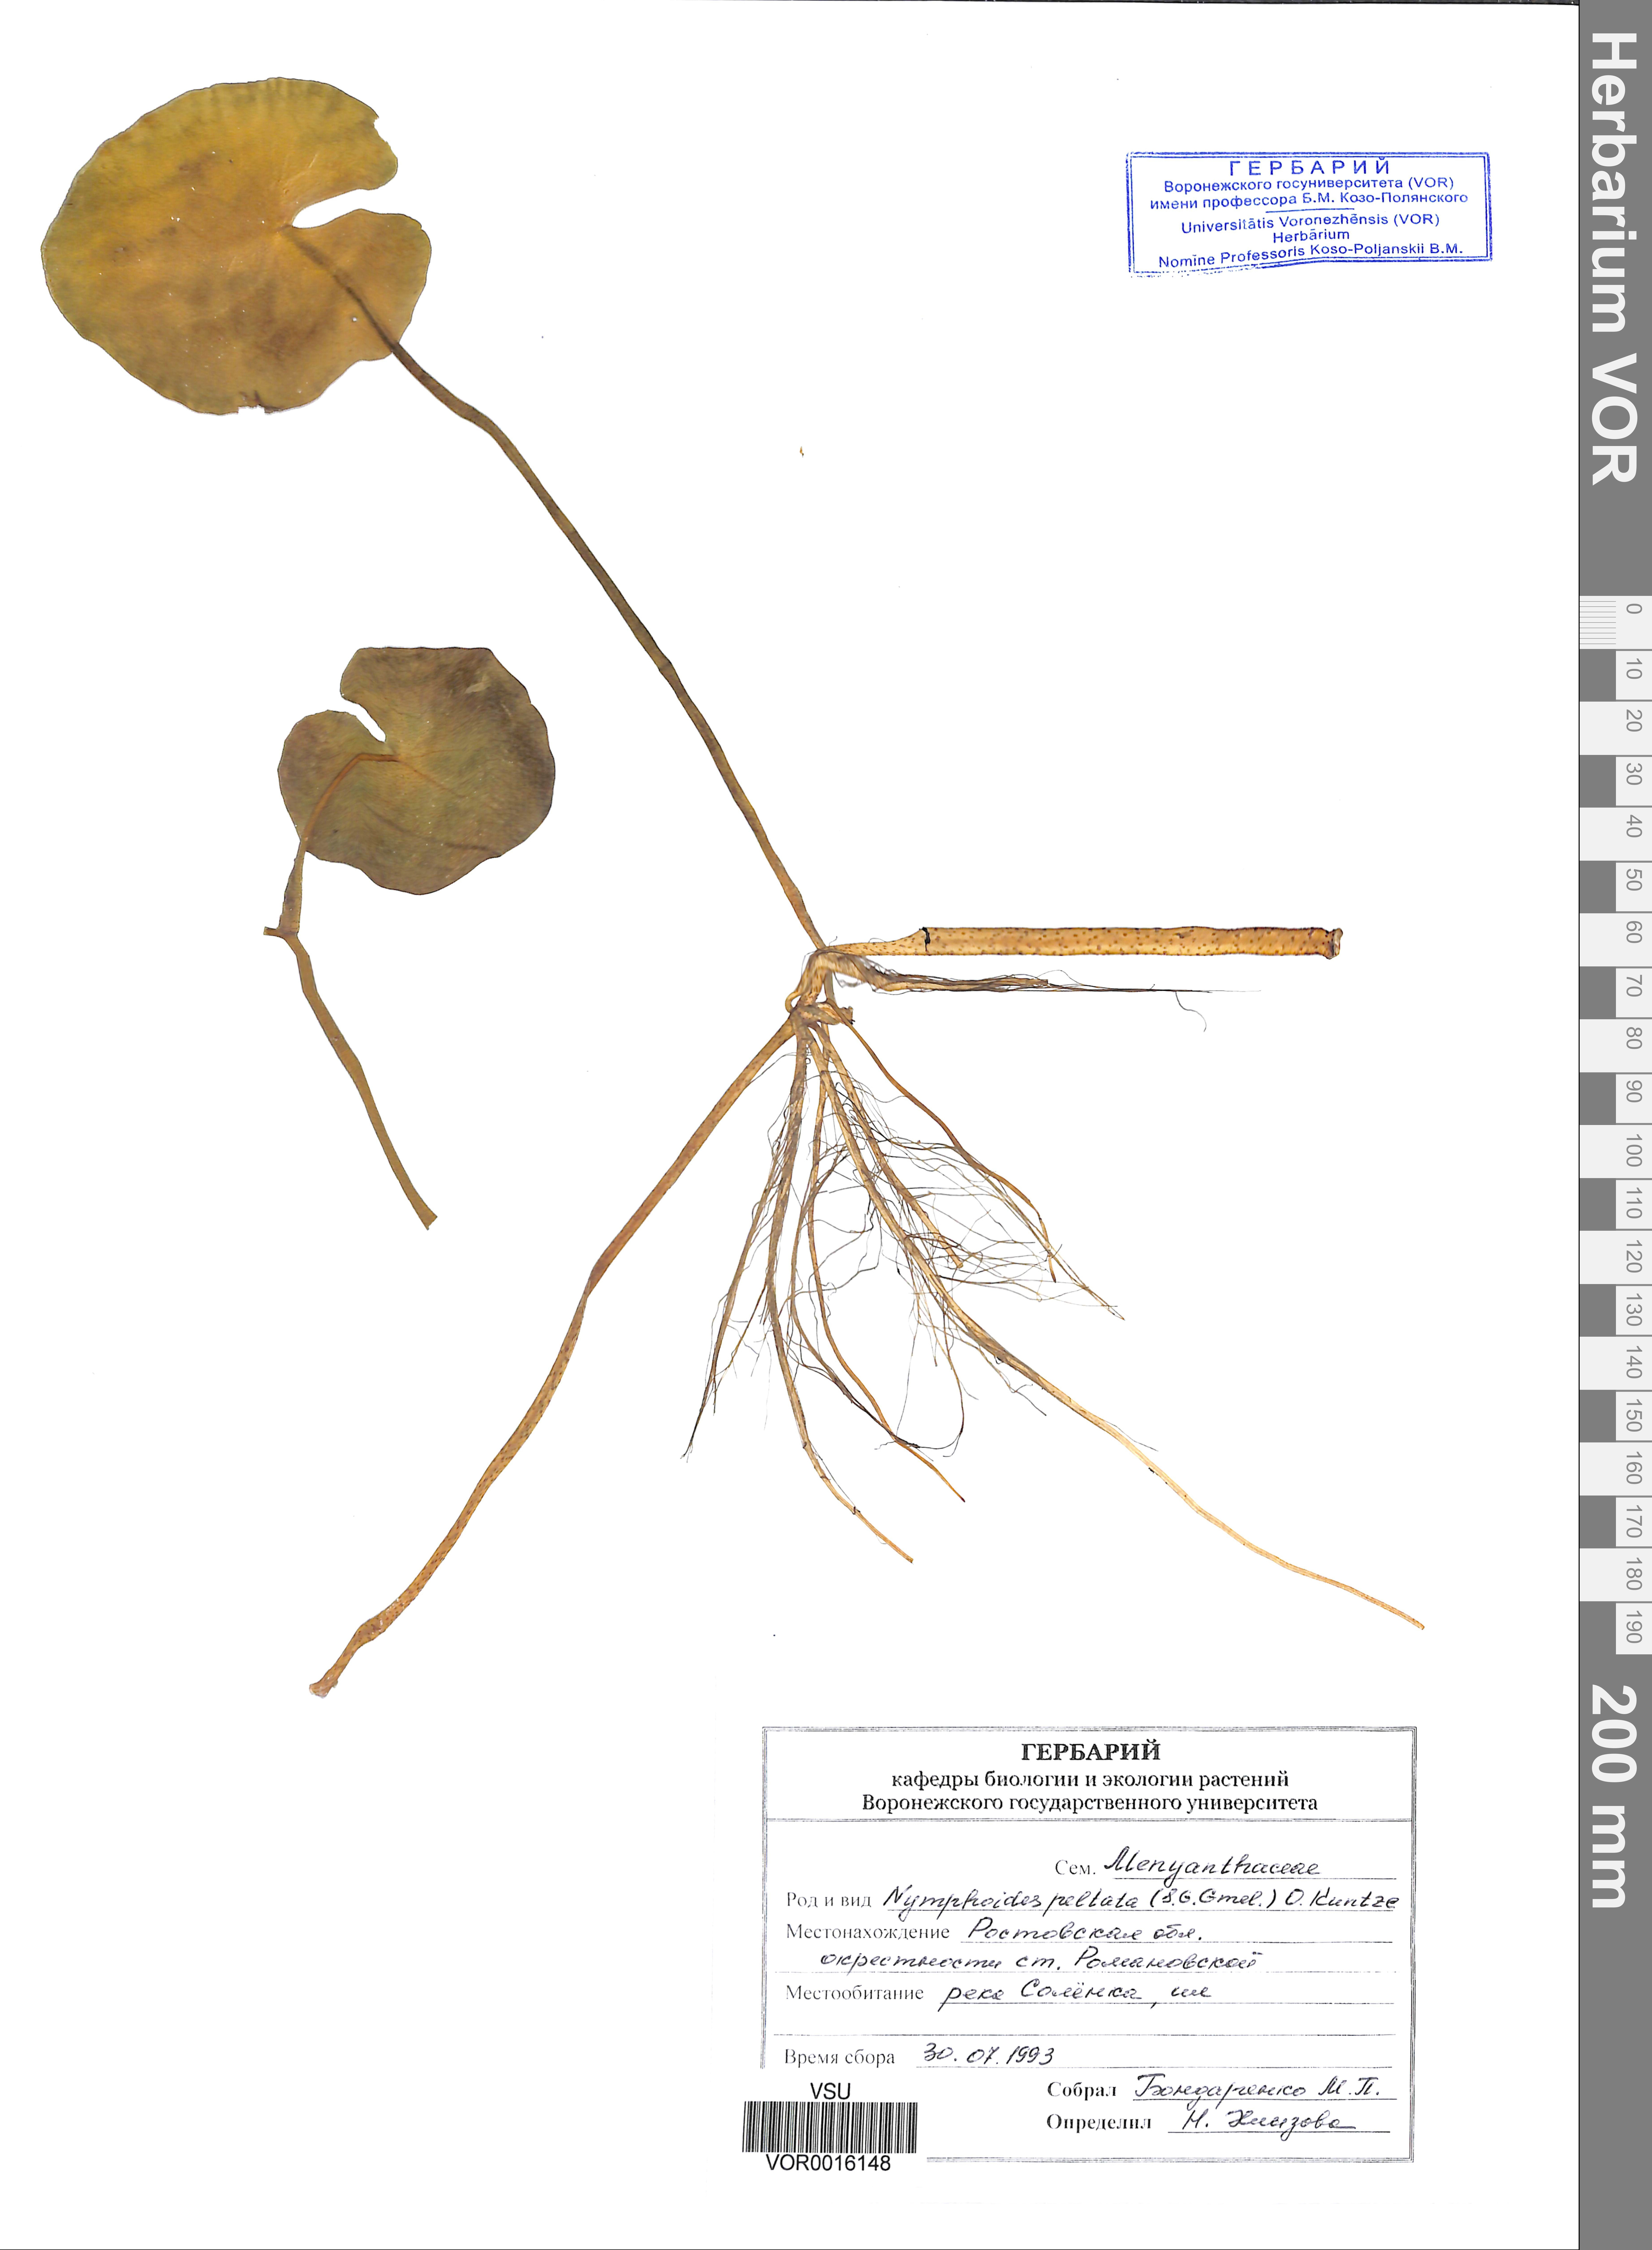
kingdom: Plantae
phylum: Tracheophyta
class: Magnoliopsida
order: Asterales
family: Menyanthaceae
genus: Nymphoides
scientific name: Nymphoides peltata
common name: Fringed water-lily
